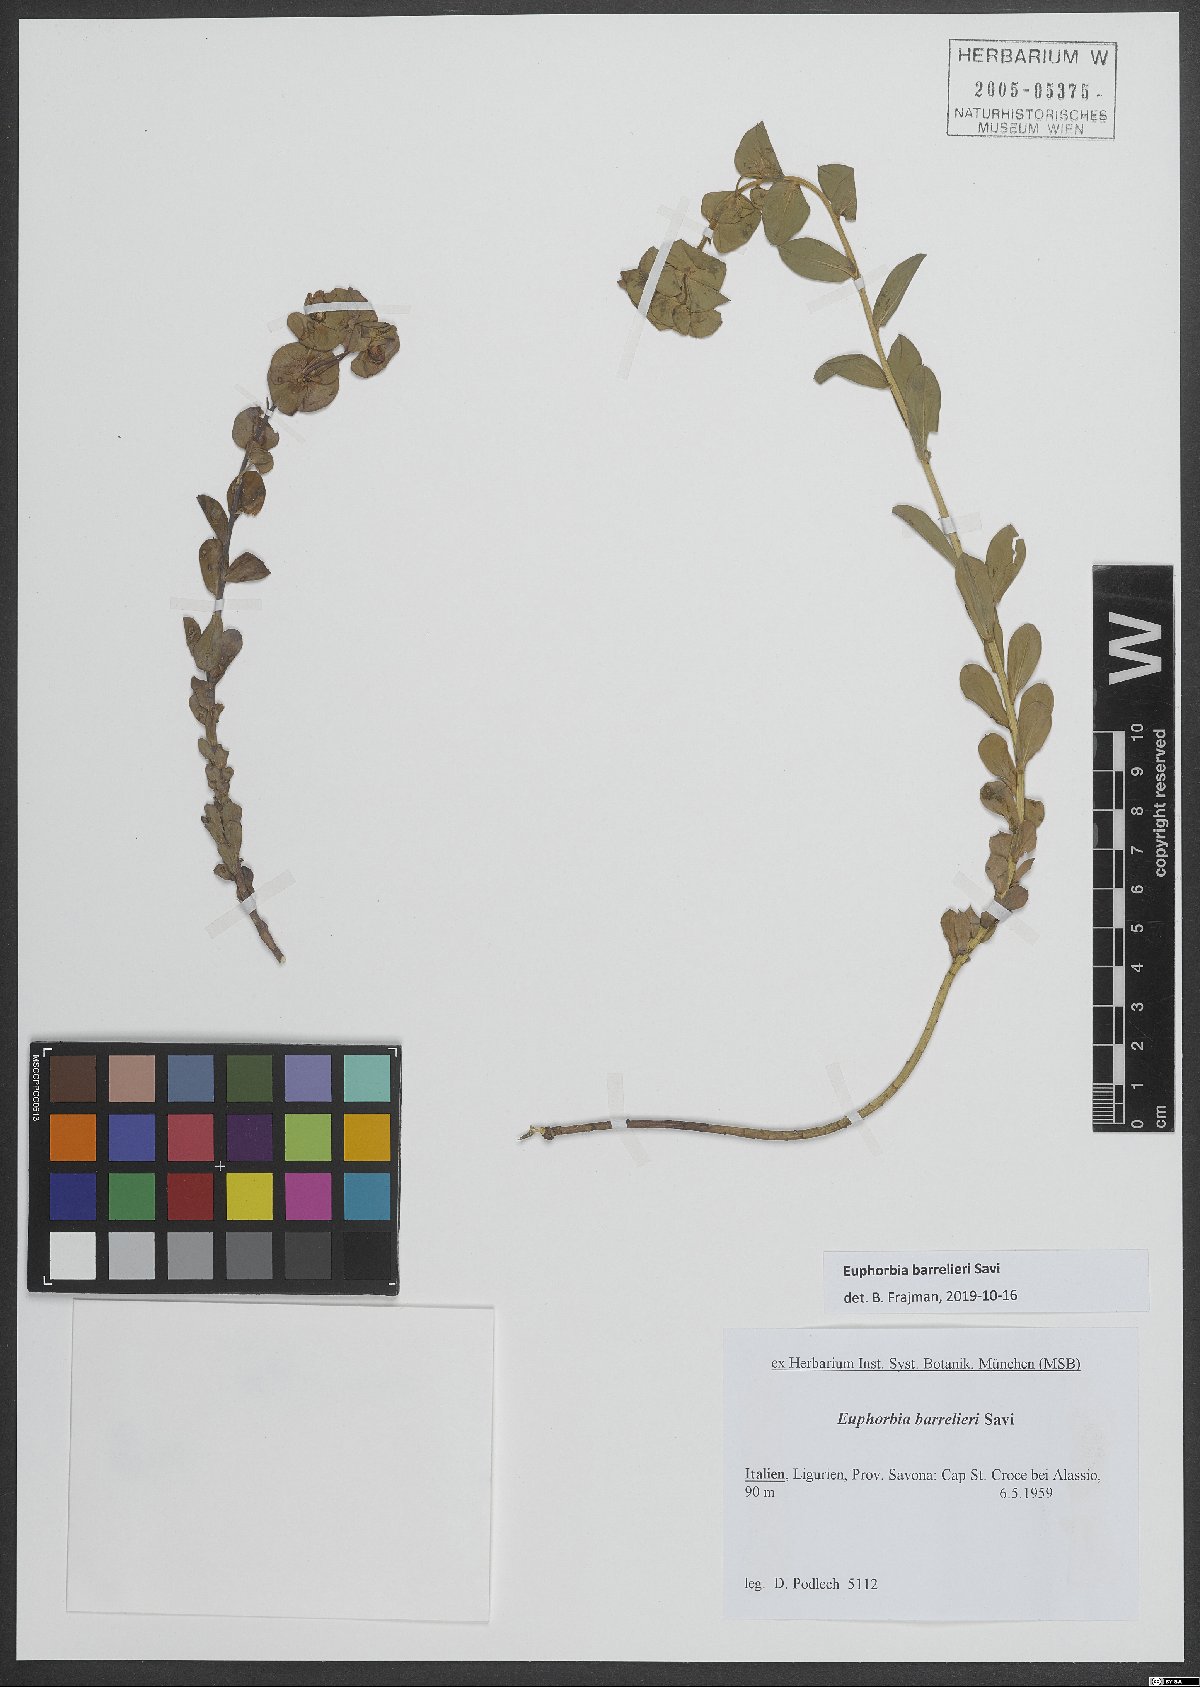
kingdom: Plantae
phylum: Tracheophyta
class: Magnoliopsida
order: Malpighiales
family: Euphorbiaceae
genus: Euphorbia
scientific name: Euphorbia barrelieri
